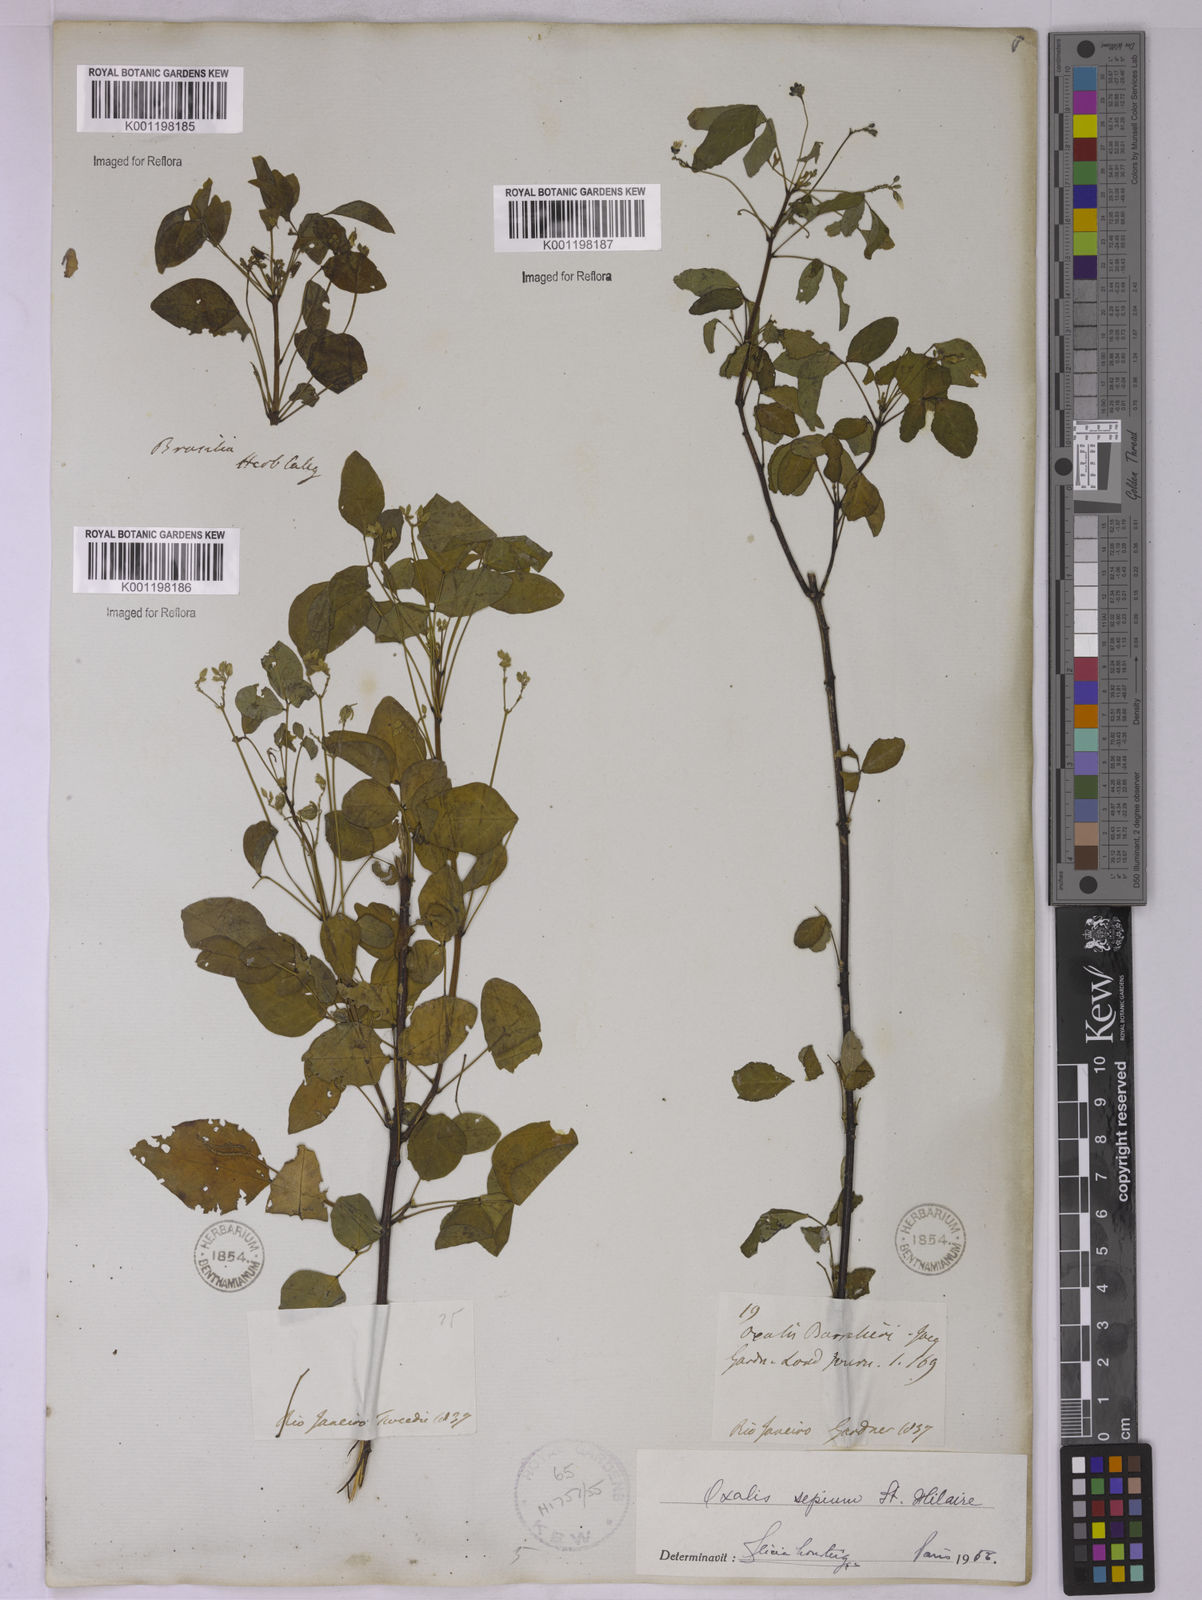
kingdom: Plantae
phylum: Tracheophyta
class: Magnoliopsida
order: Oxalidales
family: Oxalidaceae
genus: Oxalis
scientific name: Oxalis sepium
